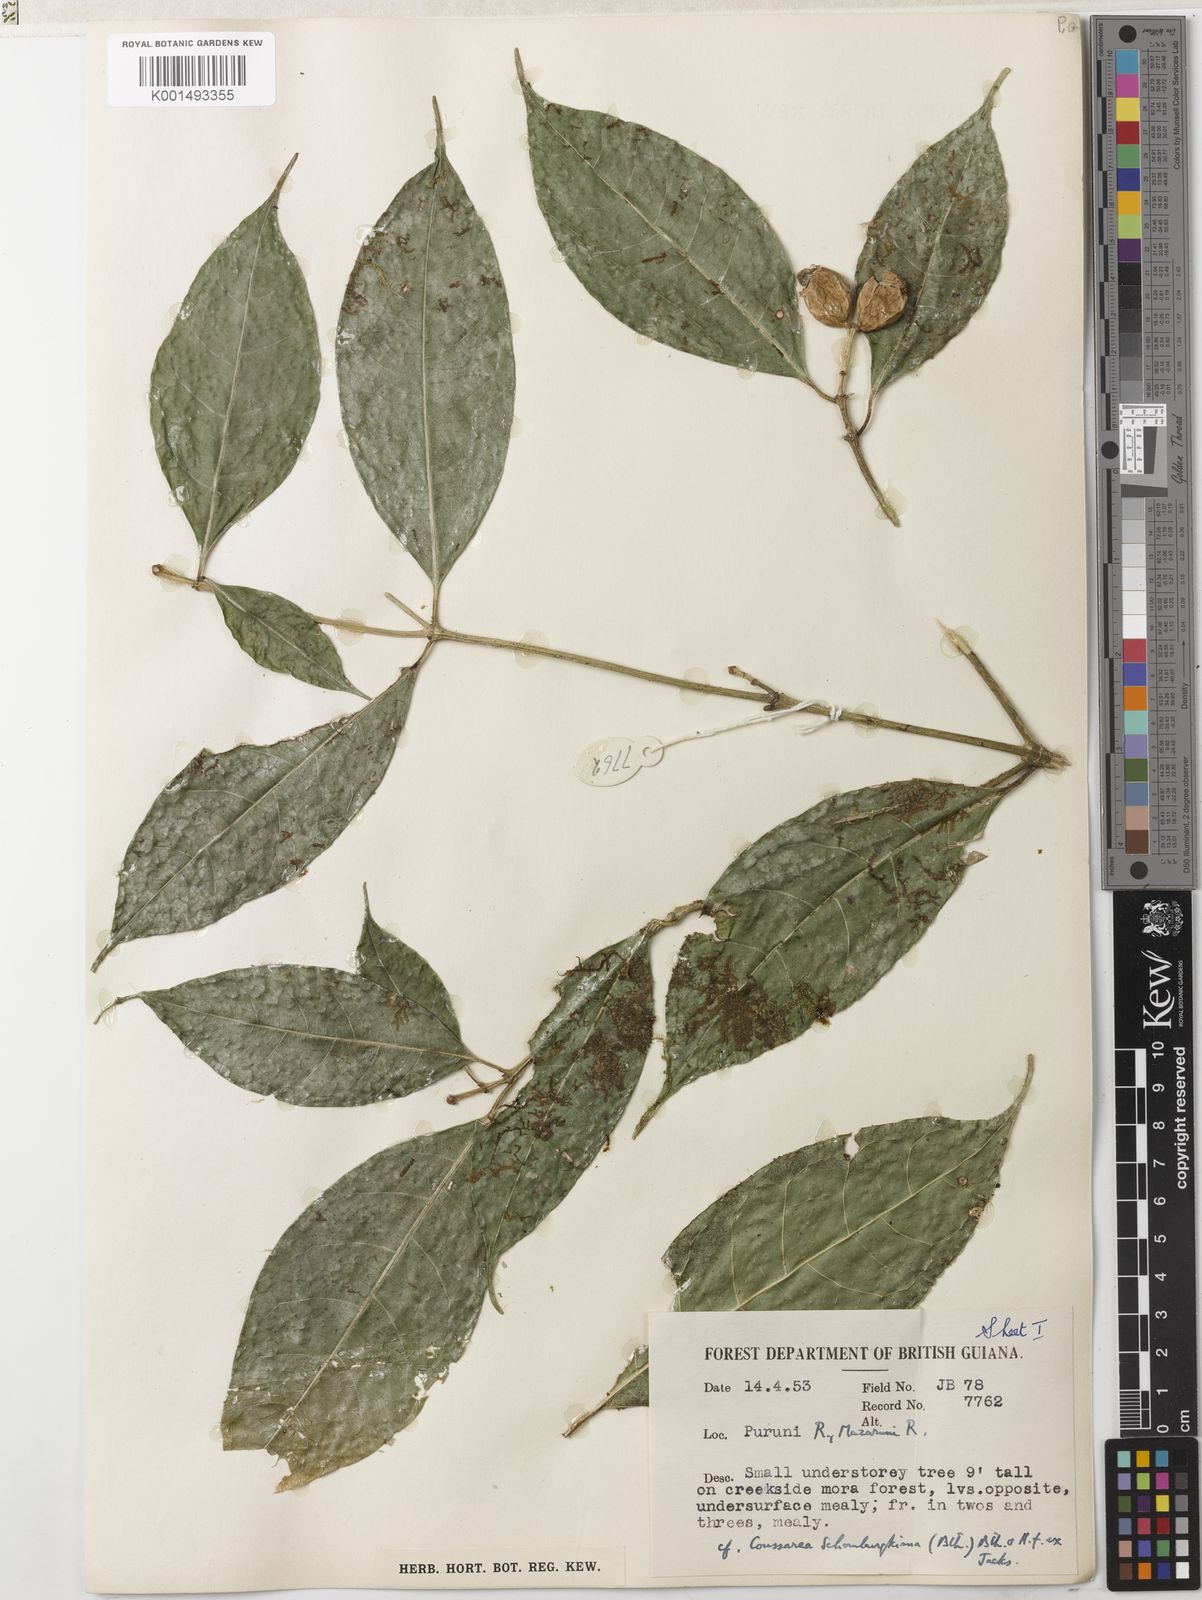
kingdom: Plantae
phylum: Tracheophyta
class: Magnoliopsida
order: Gentianales
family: Rubiaceae
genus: Coussarea
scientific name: Coussarea violacea
